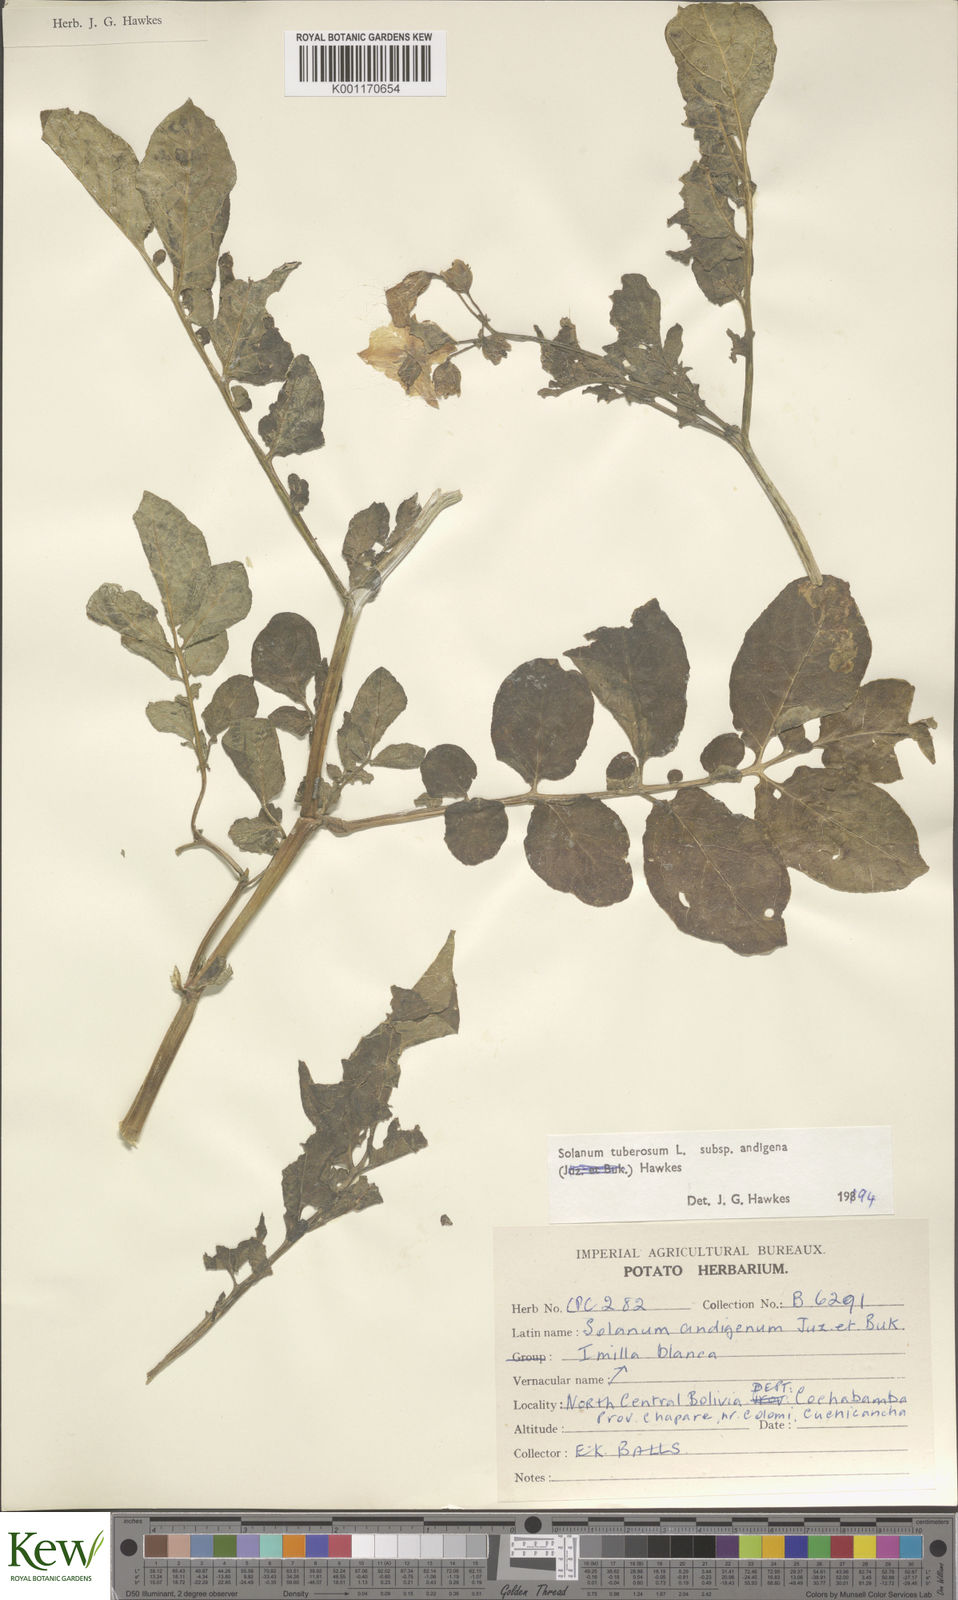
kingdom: Plantae
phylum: Tracheophyta
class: Magnoliopsida
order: Solanales
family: Solanaceae
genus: Solanum
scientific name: Solanum tuberosum
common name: Potato
